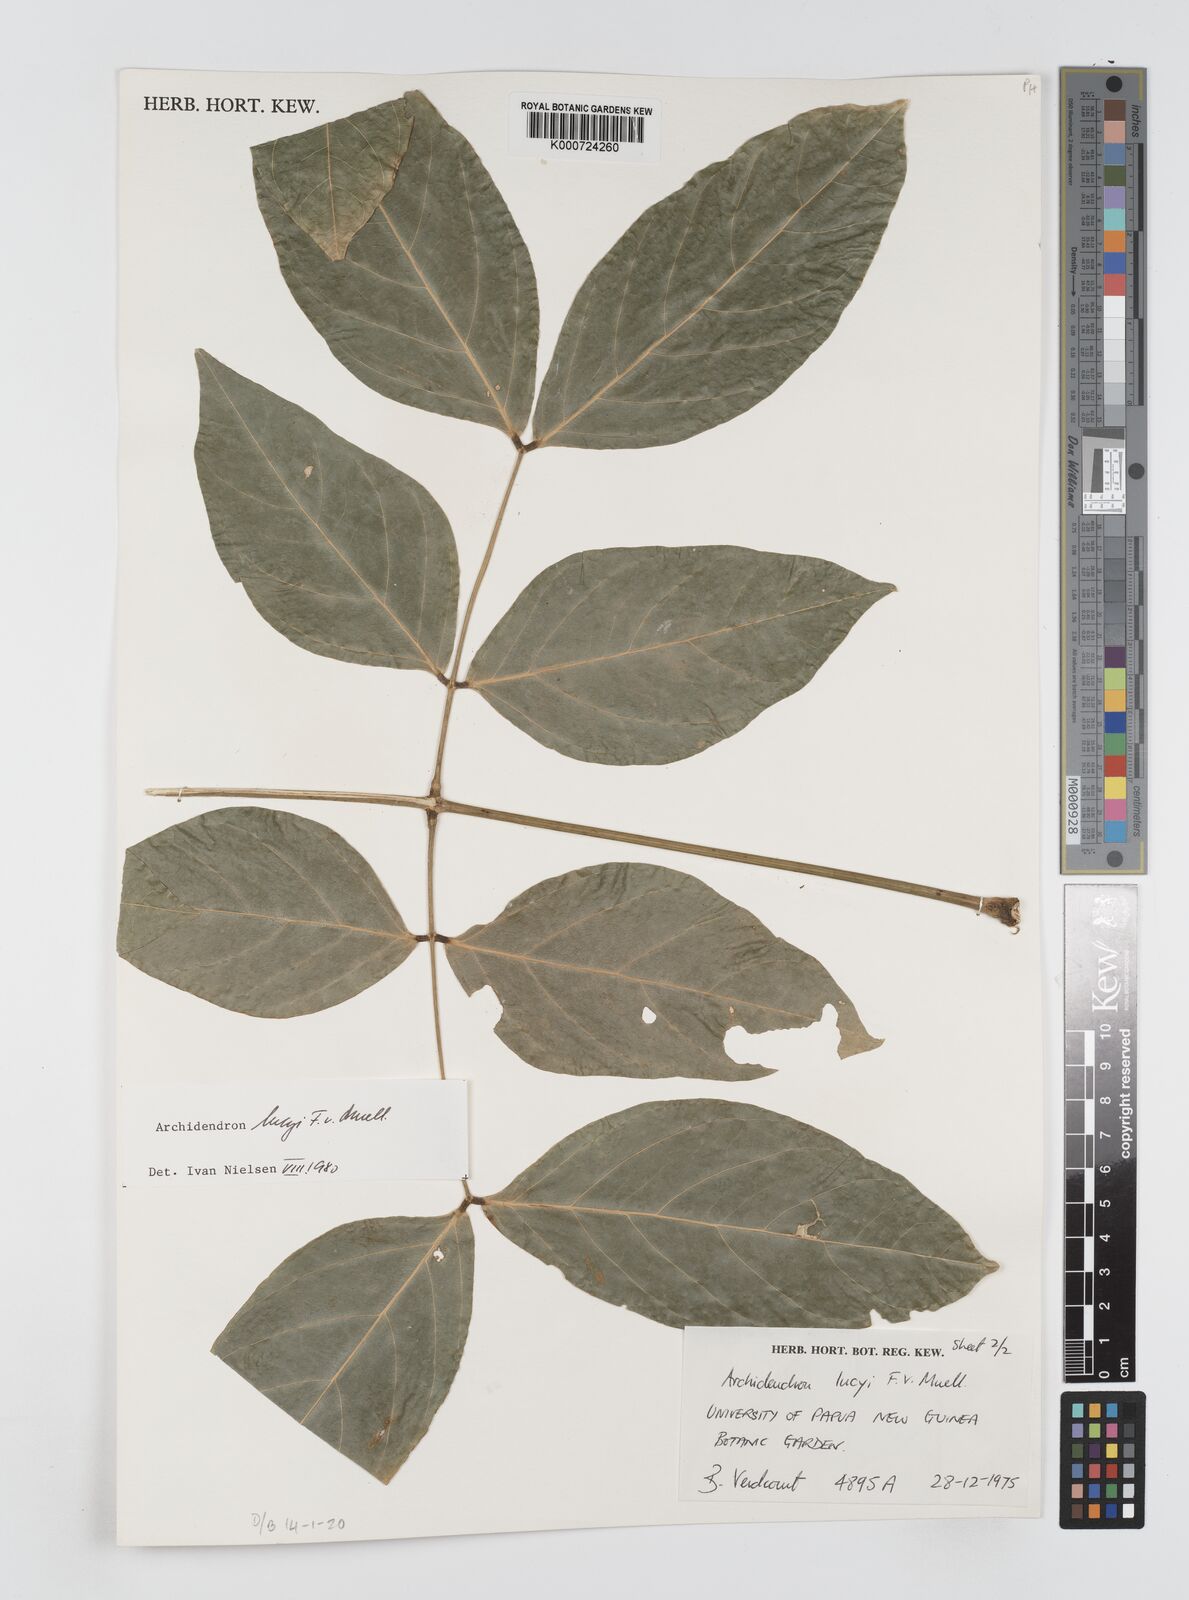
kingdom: Plantae
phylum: Tracheophyta
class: Magnoliopsida
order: Fabales
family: Fabaceae
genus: Archidendron
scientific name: Archidendron lucyi
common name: Scarlet bean
